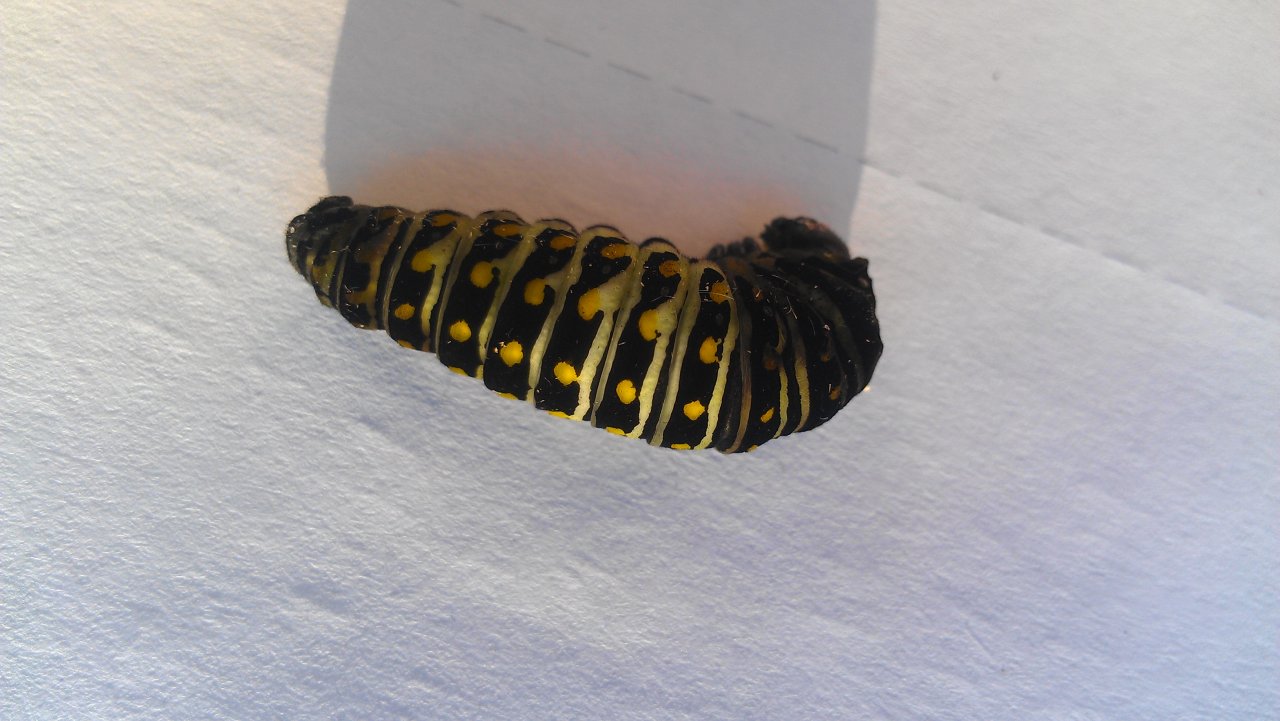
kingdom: Animalia
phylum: Arthropoda
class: Insecta
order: Lepidoptera
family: Papilionidae
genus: Papilio
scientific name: Papilio polyxenes
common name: Black Swallowtail
